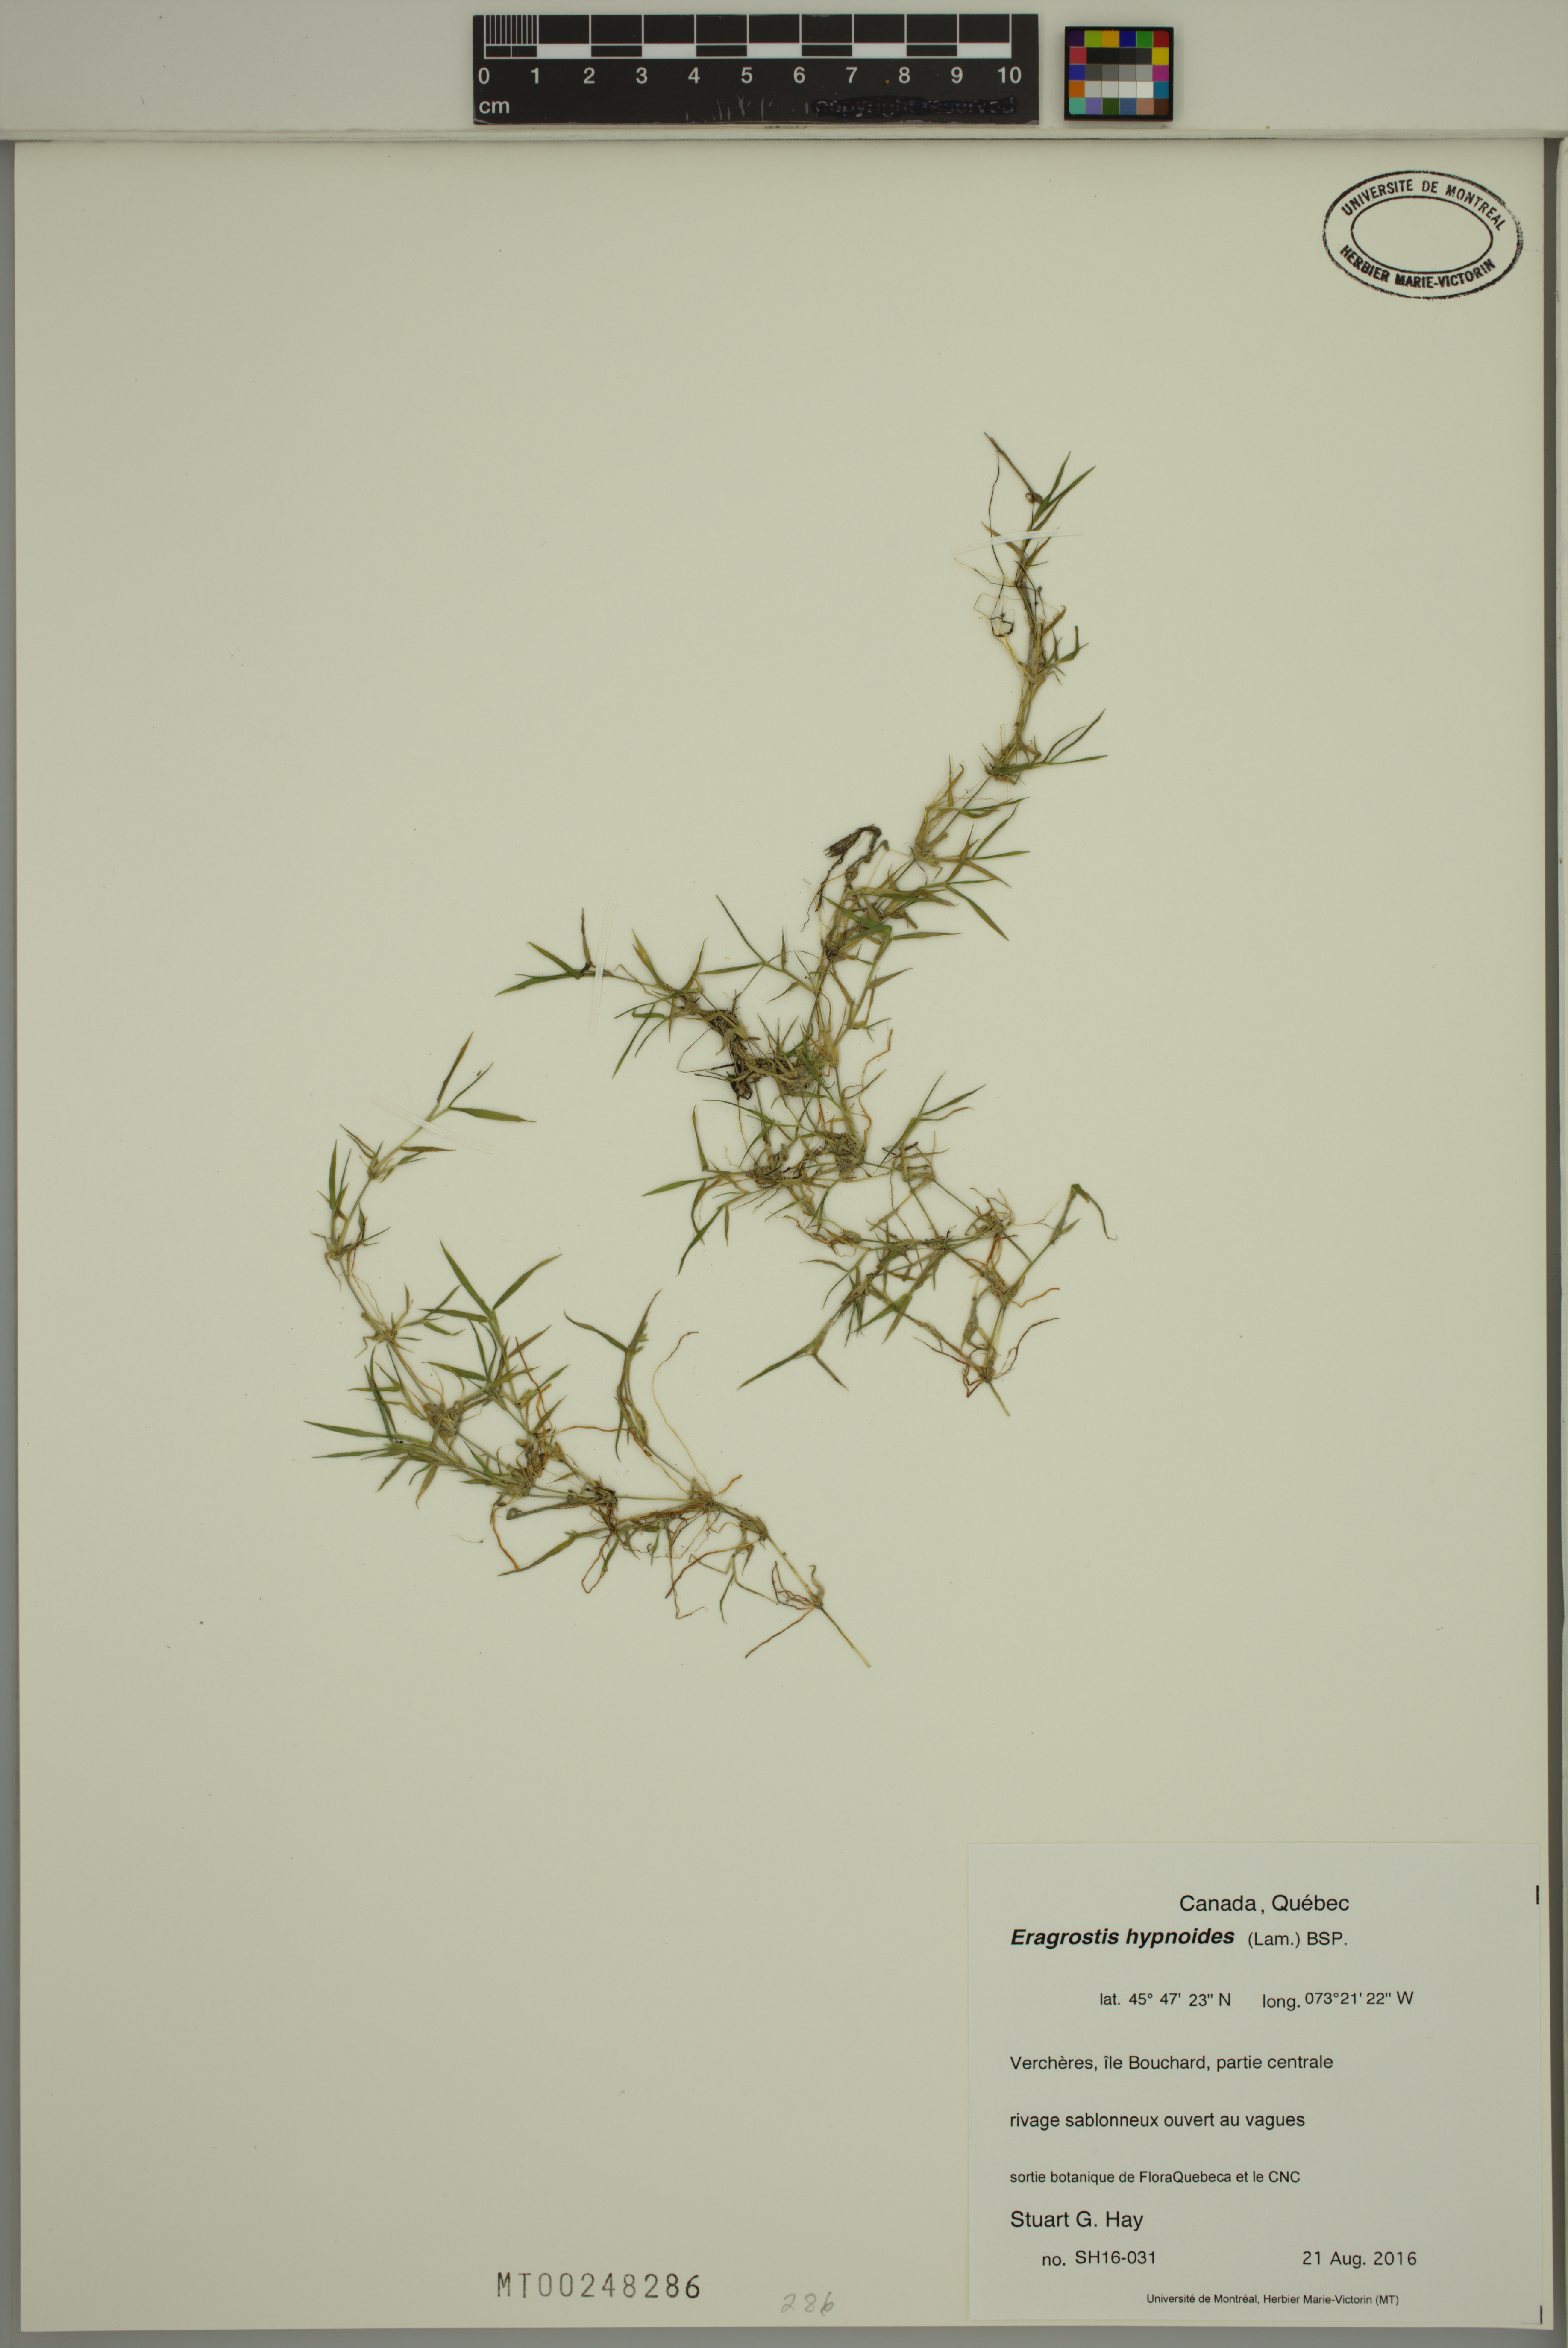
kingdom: Plantae
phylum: Tracheophyta
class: Liliopsida
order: Poales
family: Poaceae
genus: Eragrostis
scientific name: Eragrostis hypnoides
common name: Creeping love grass
